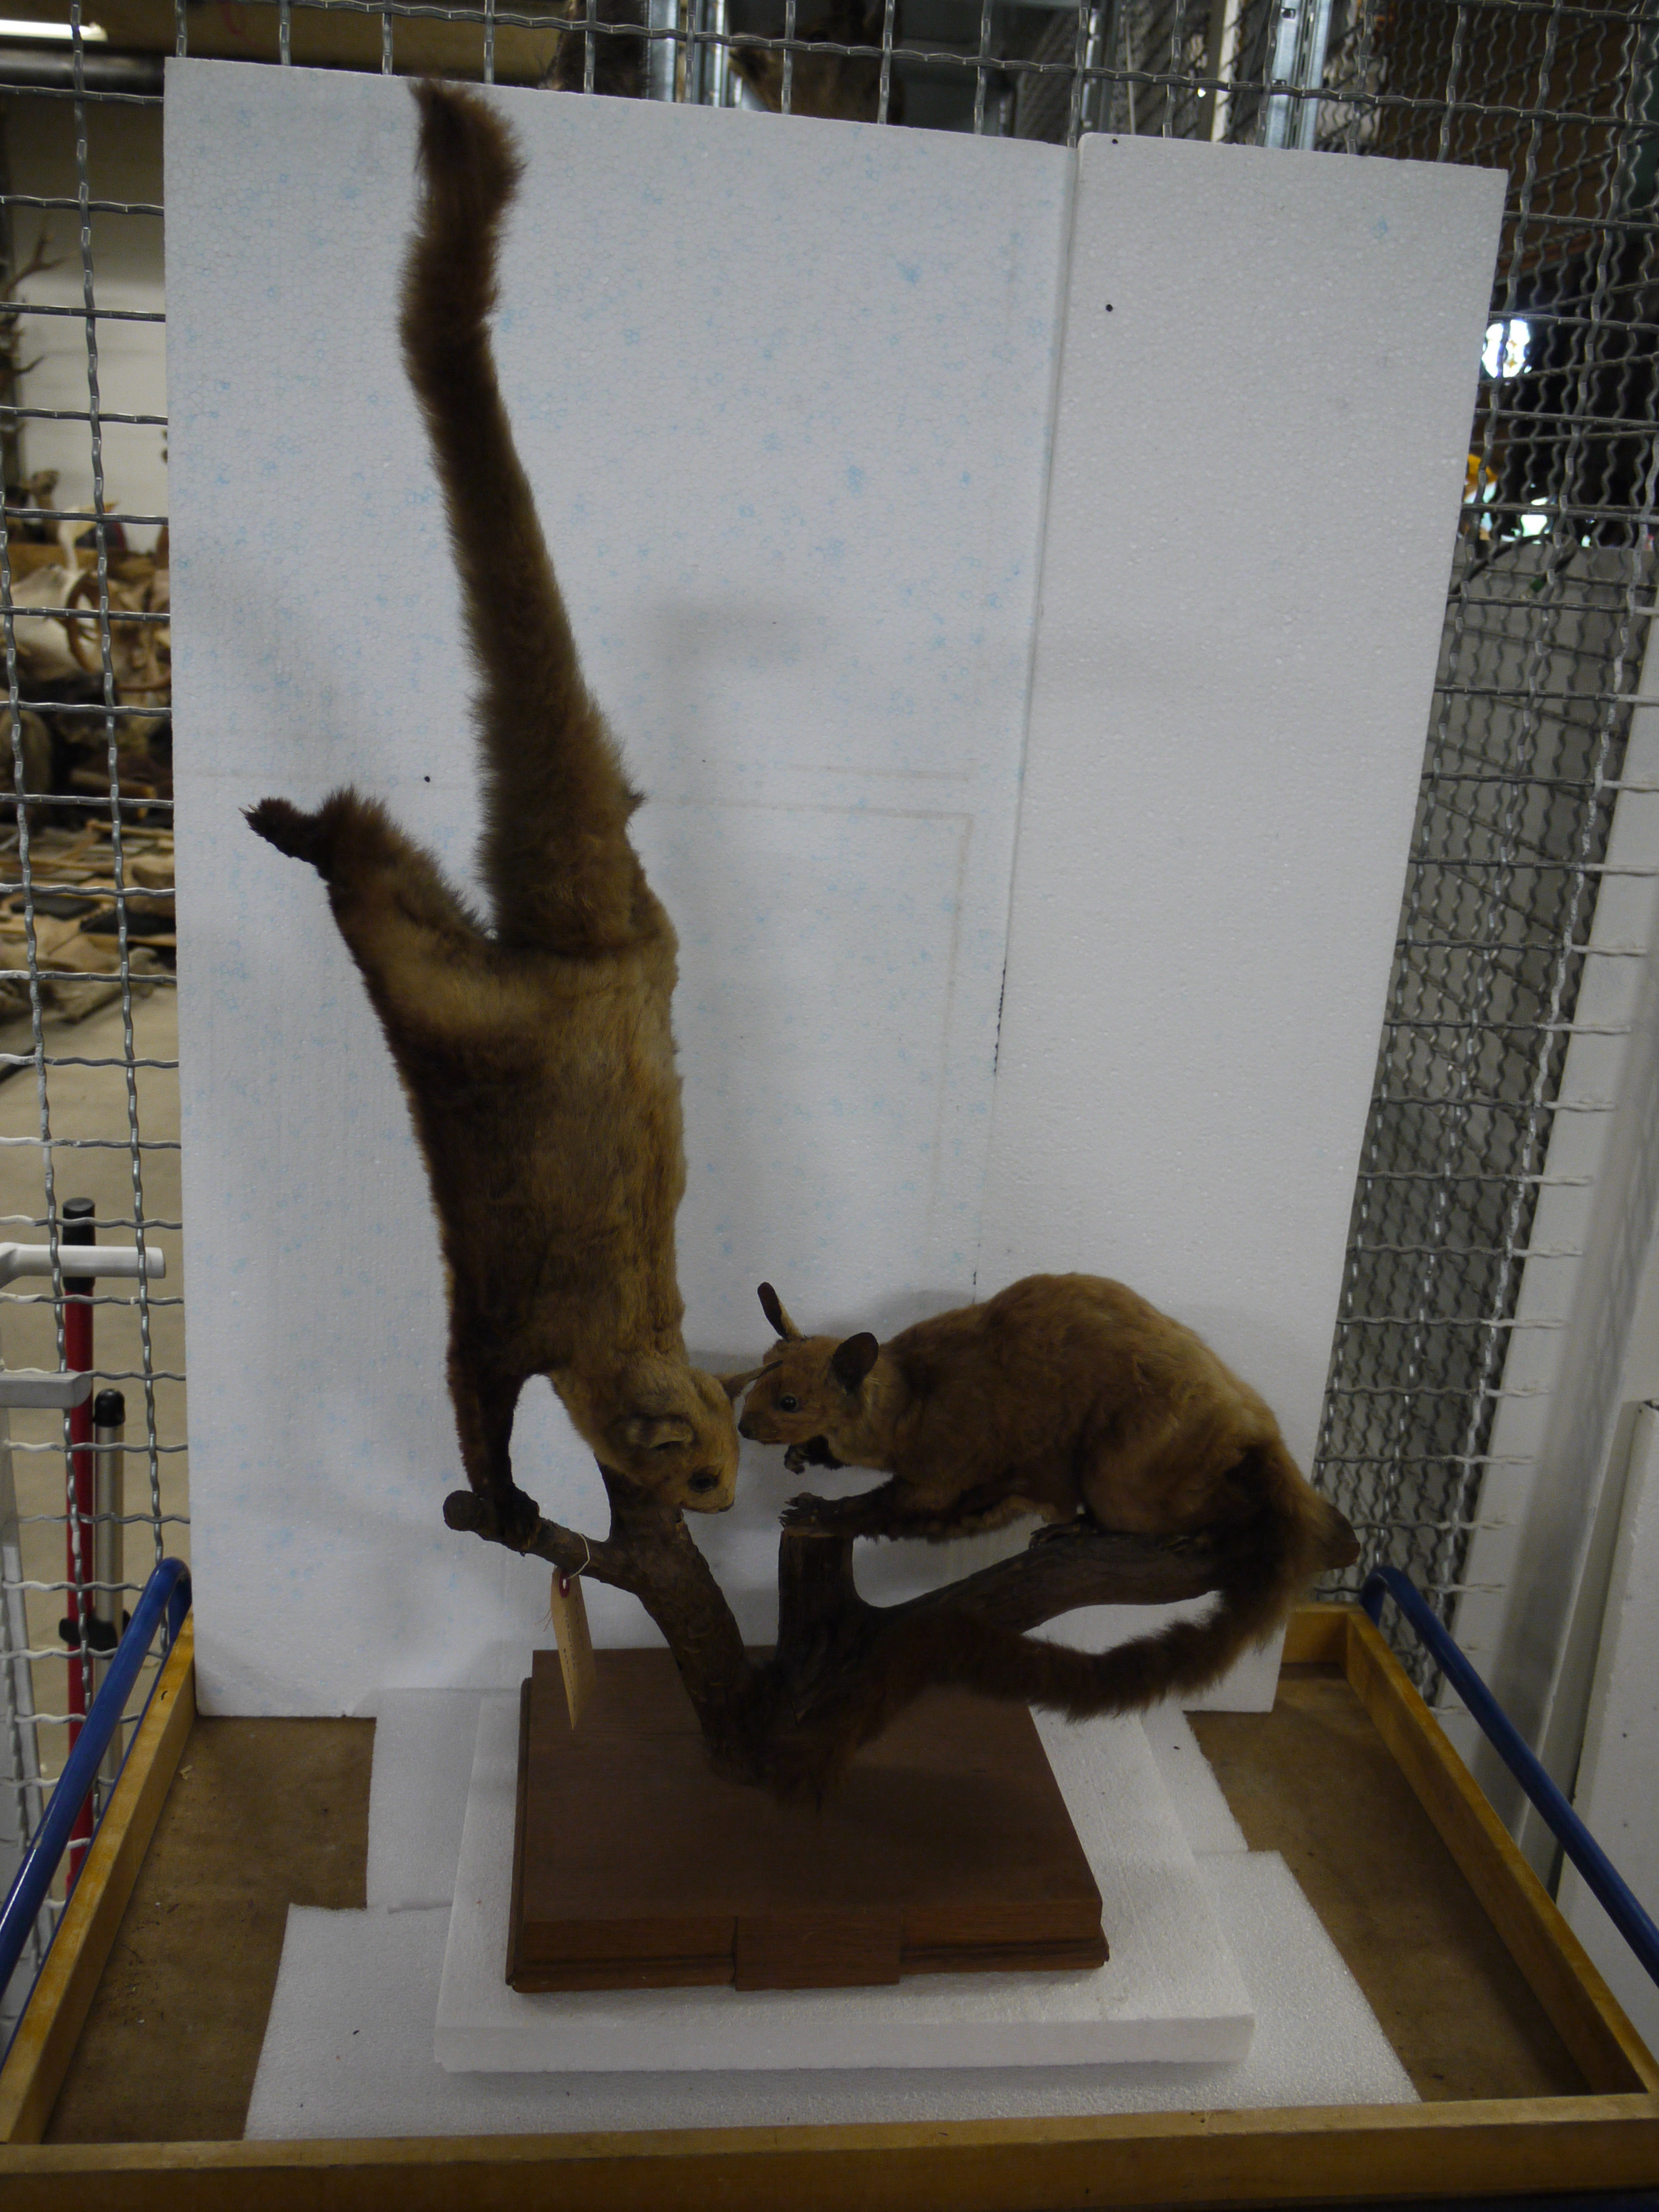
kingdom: Animalia
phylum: Chordata
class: Mammalia
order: Rodentia
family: Sciuridae
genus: Petaurista
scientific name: Petaurista petaurista
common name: Red giant flying squirrel
